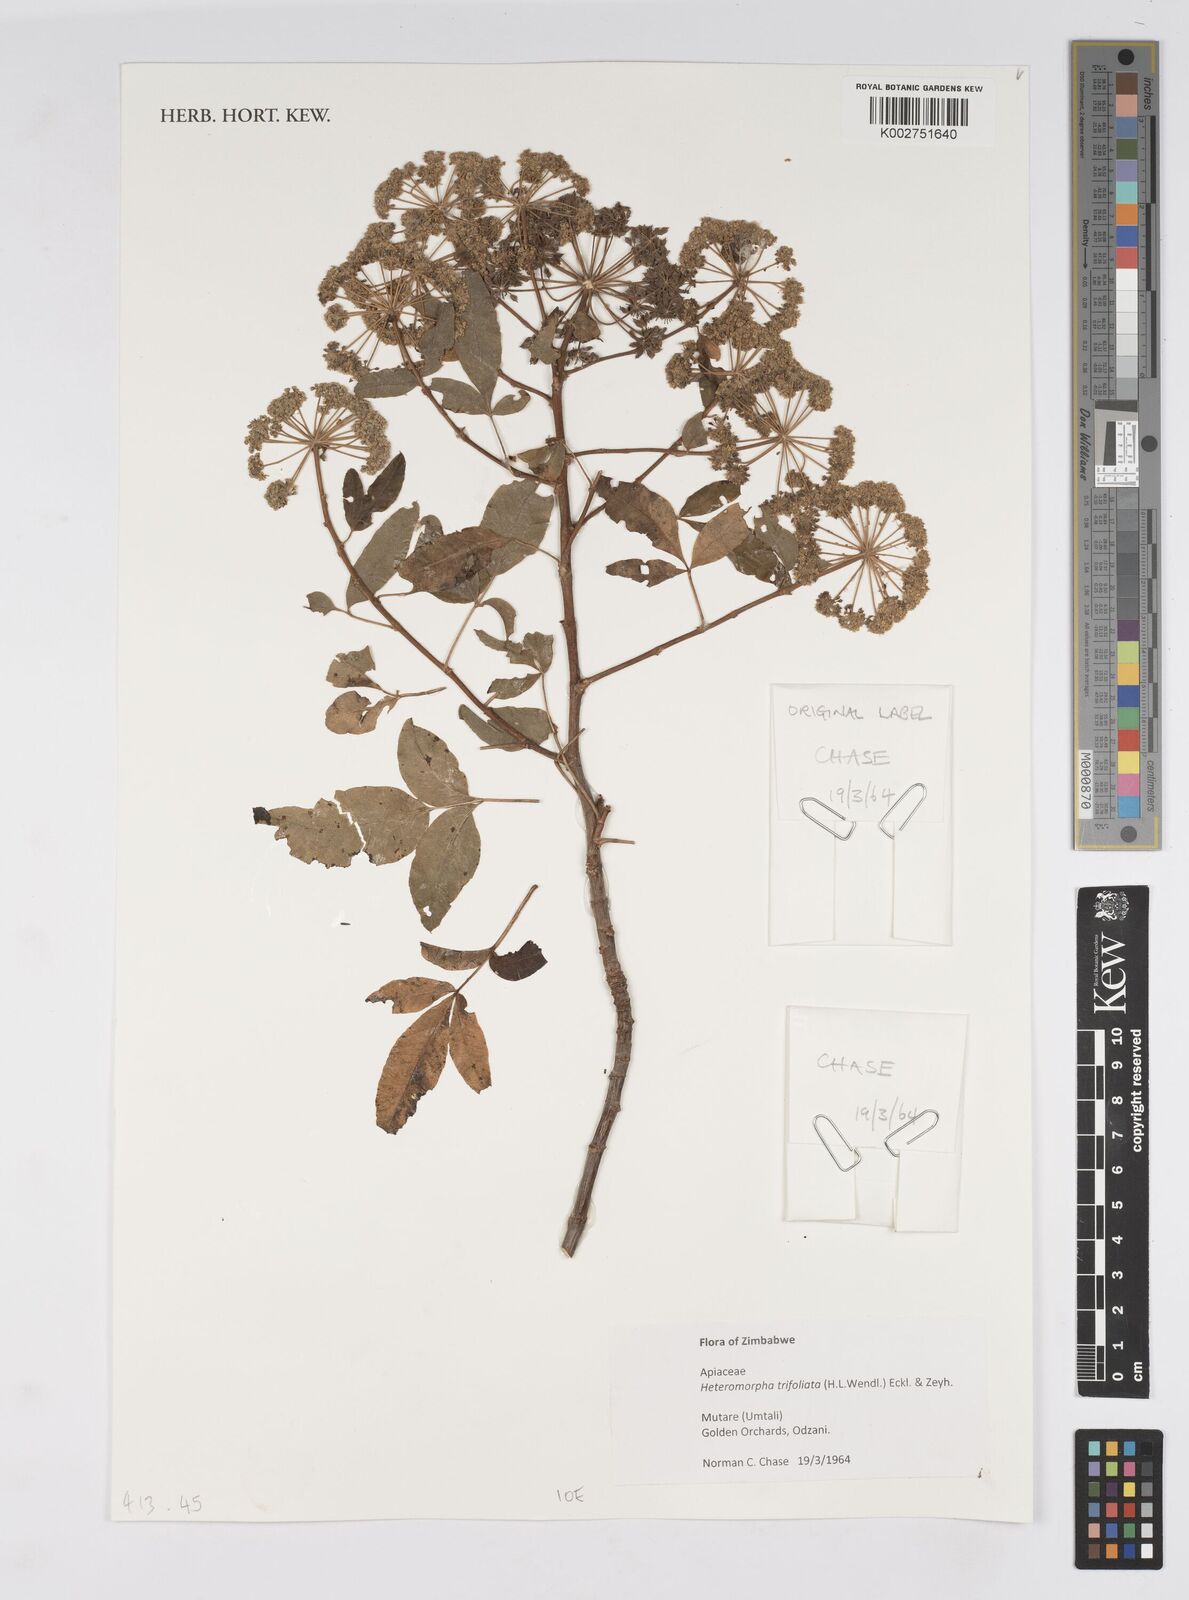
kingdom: Plantae
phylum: Tracheophyta
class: Magnoliopsida
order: Apiales
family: Apiaceae
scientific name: Apiaceae
